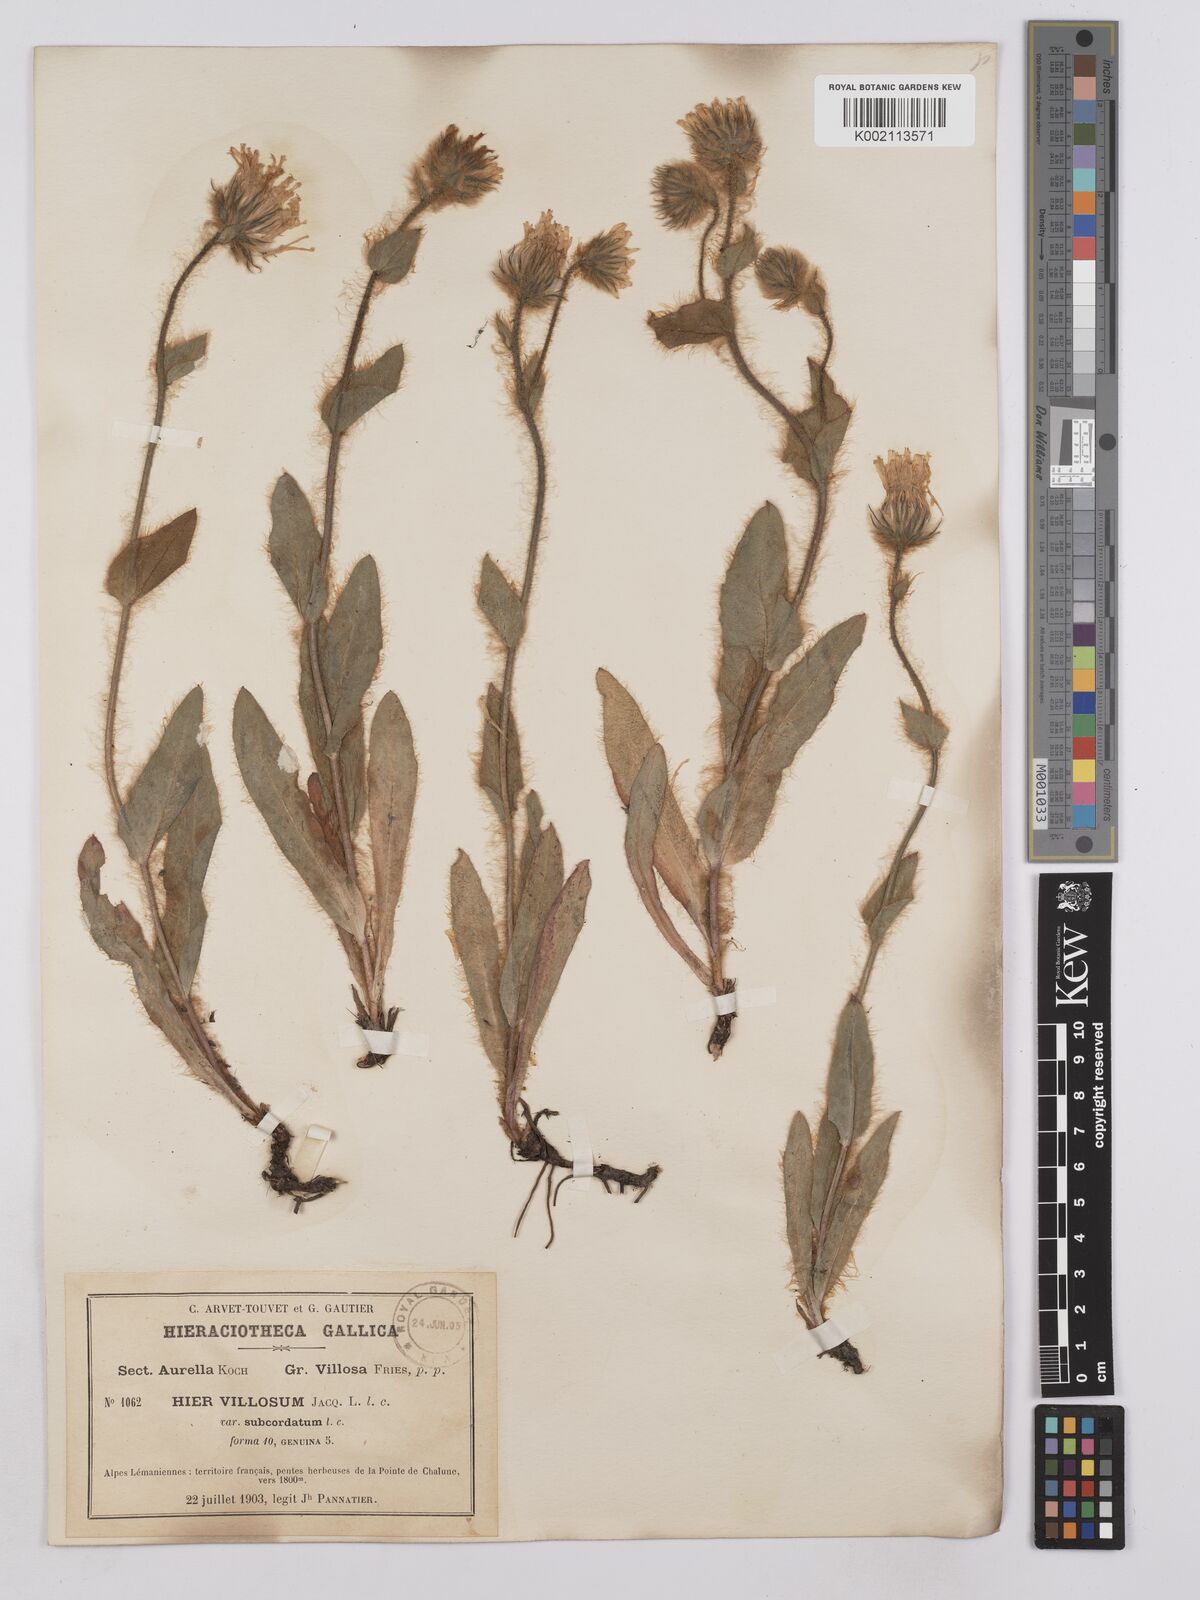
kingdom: Plantae
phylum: Tracheophyta
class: Magnoliopsida
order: Asterales
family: Asteraceae
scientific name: Asteraceae
